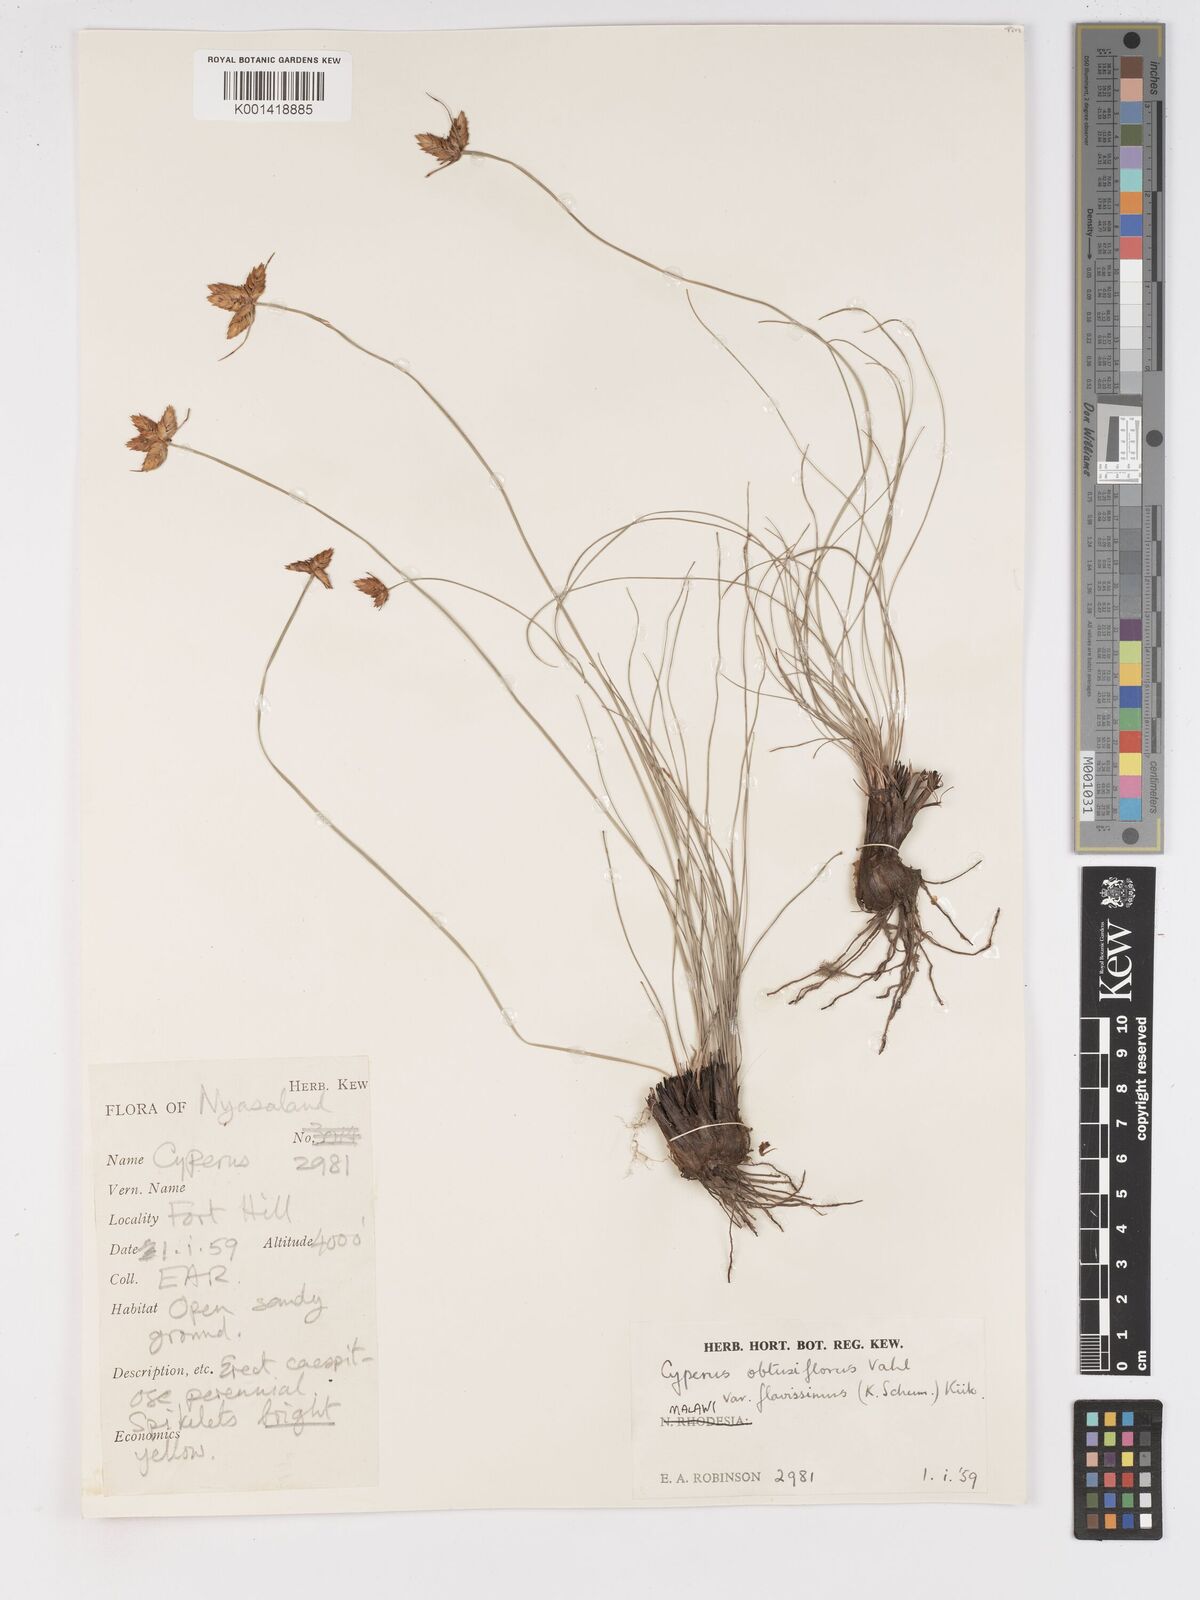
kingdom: Plantae
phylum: Tracheophyta
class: Liliopsida
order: Poales
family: Cyperaceae
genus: Cyperus
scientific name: Cyperus sphaerocephalus
